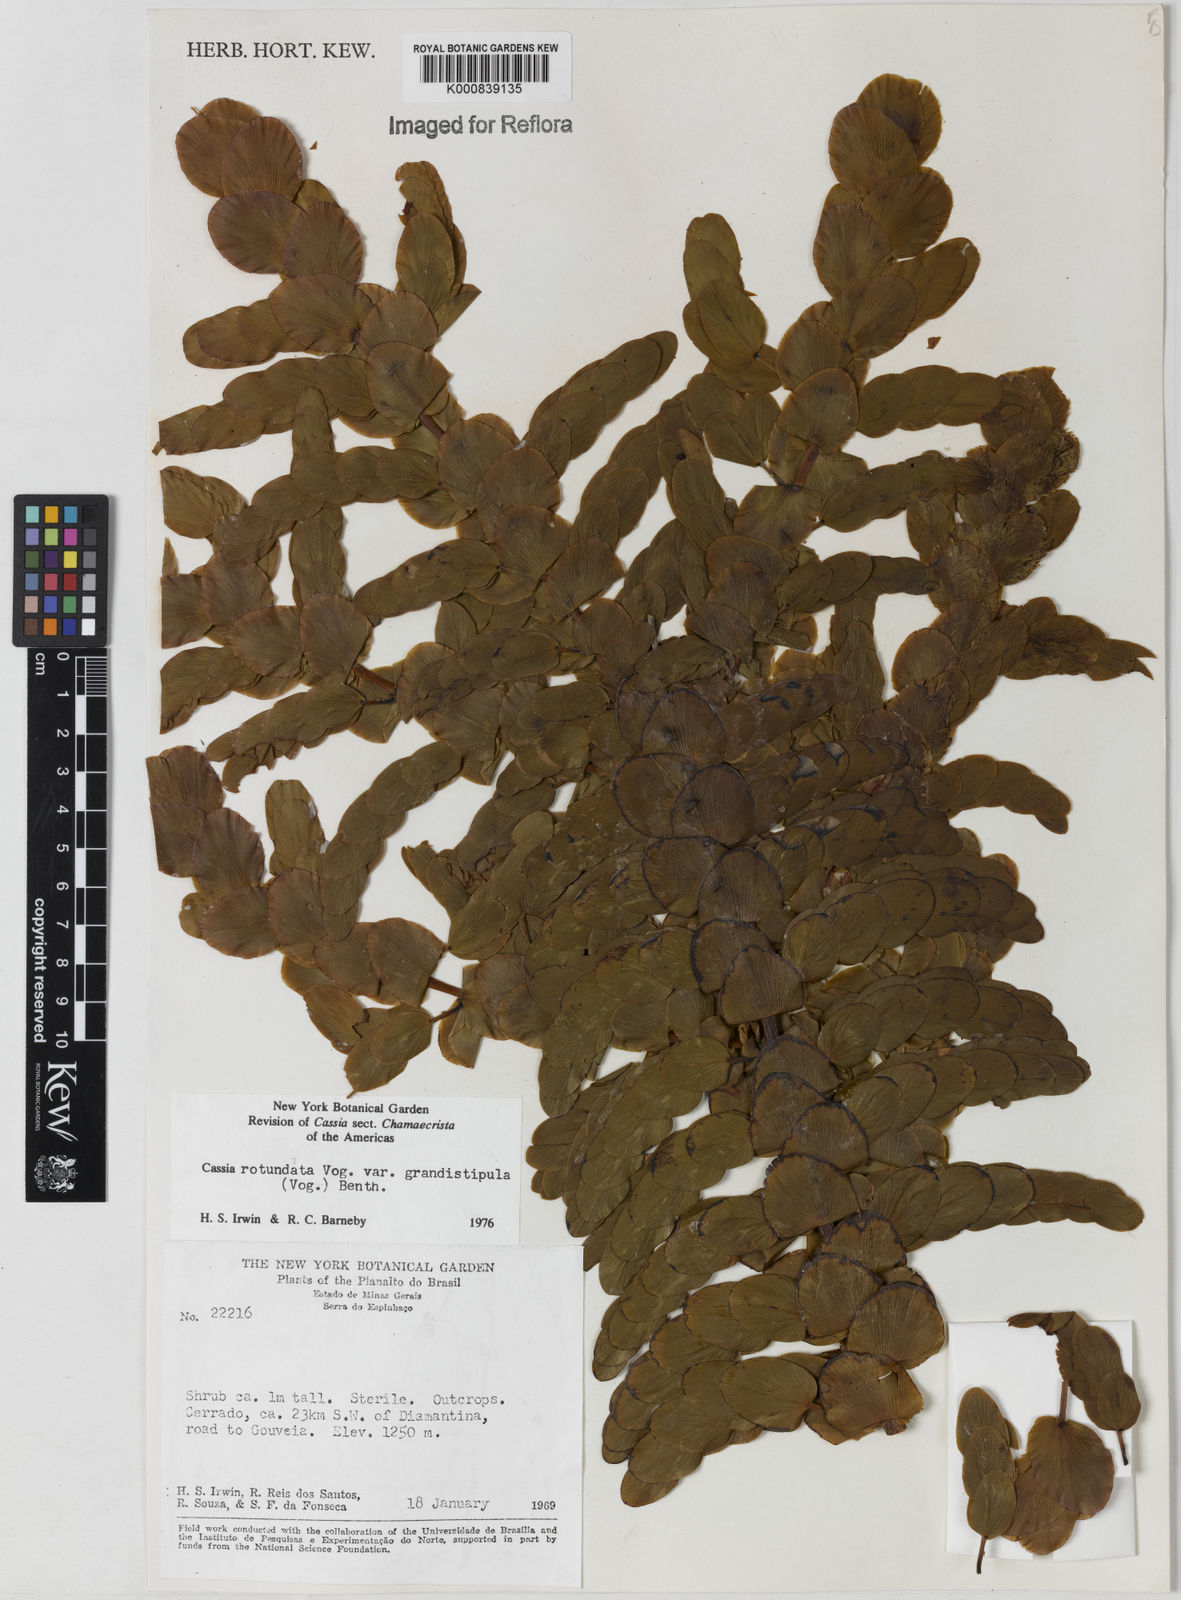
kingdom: Plantae
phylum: Tracheophyta
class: Magnoliopsida
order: Fabales
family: Fabaceae
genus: Chamaecrista
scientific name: Chamaecrista
